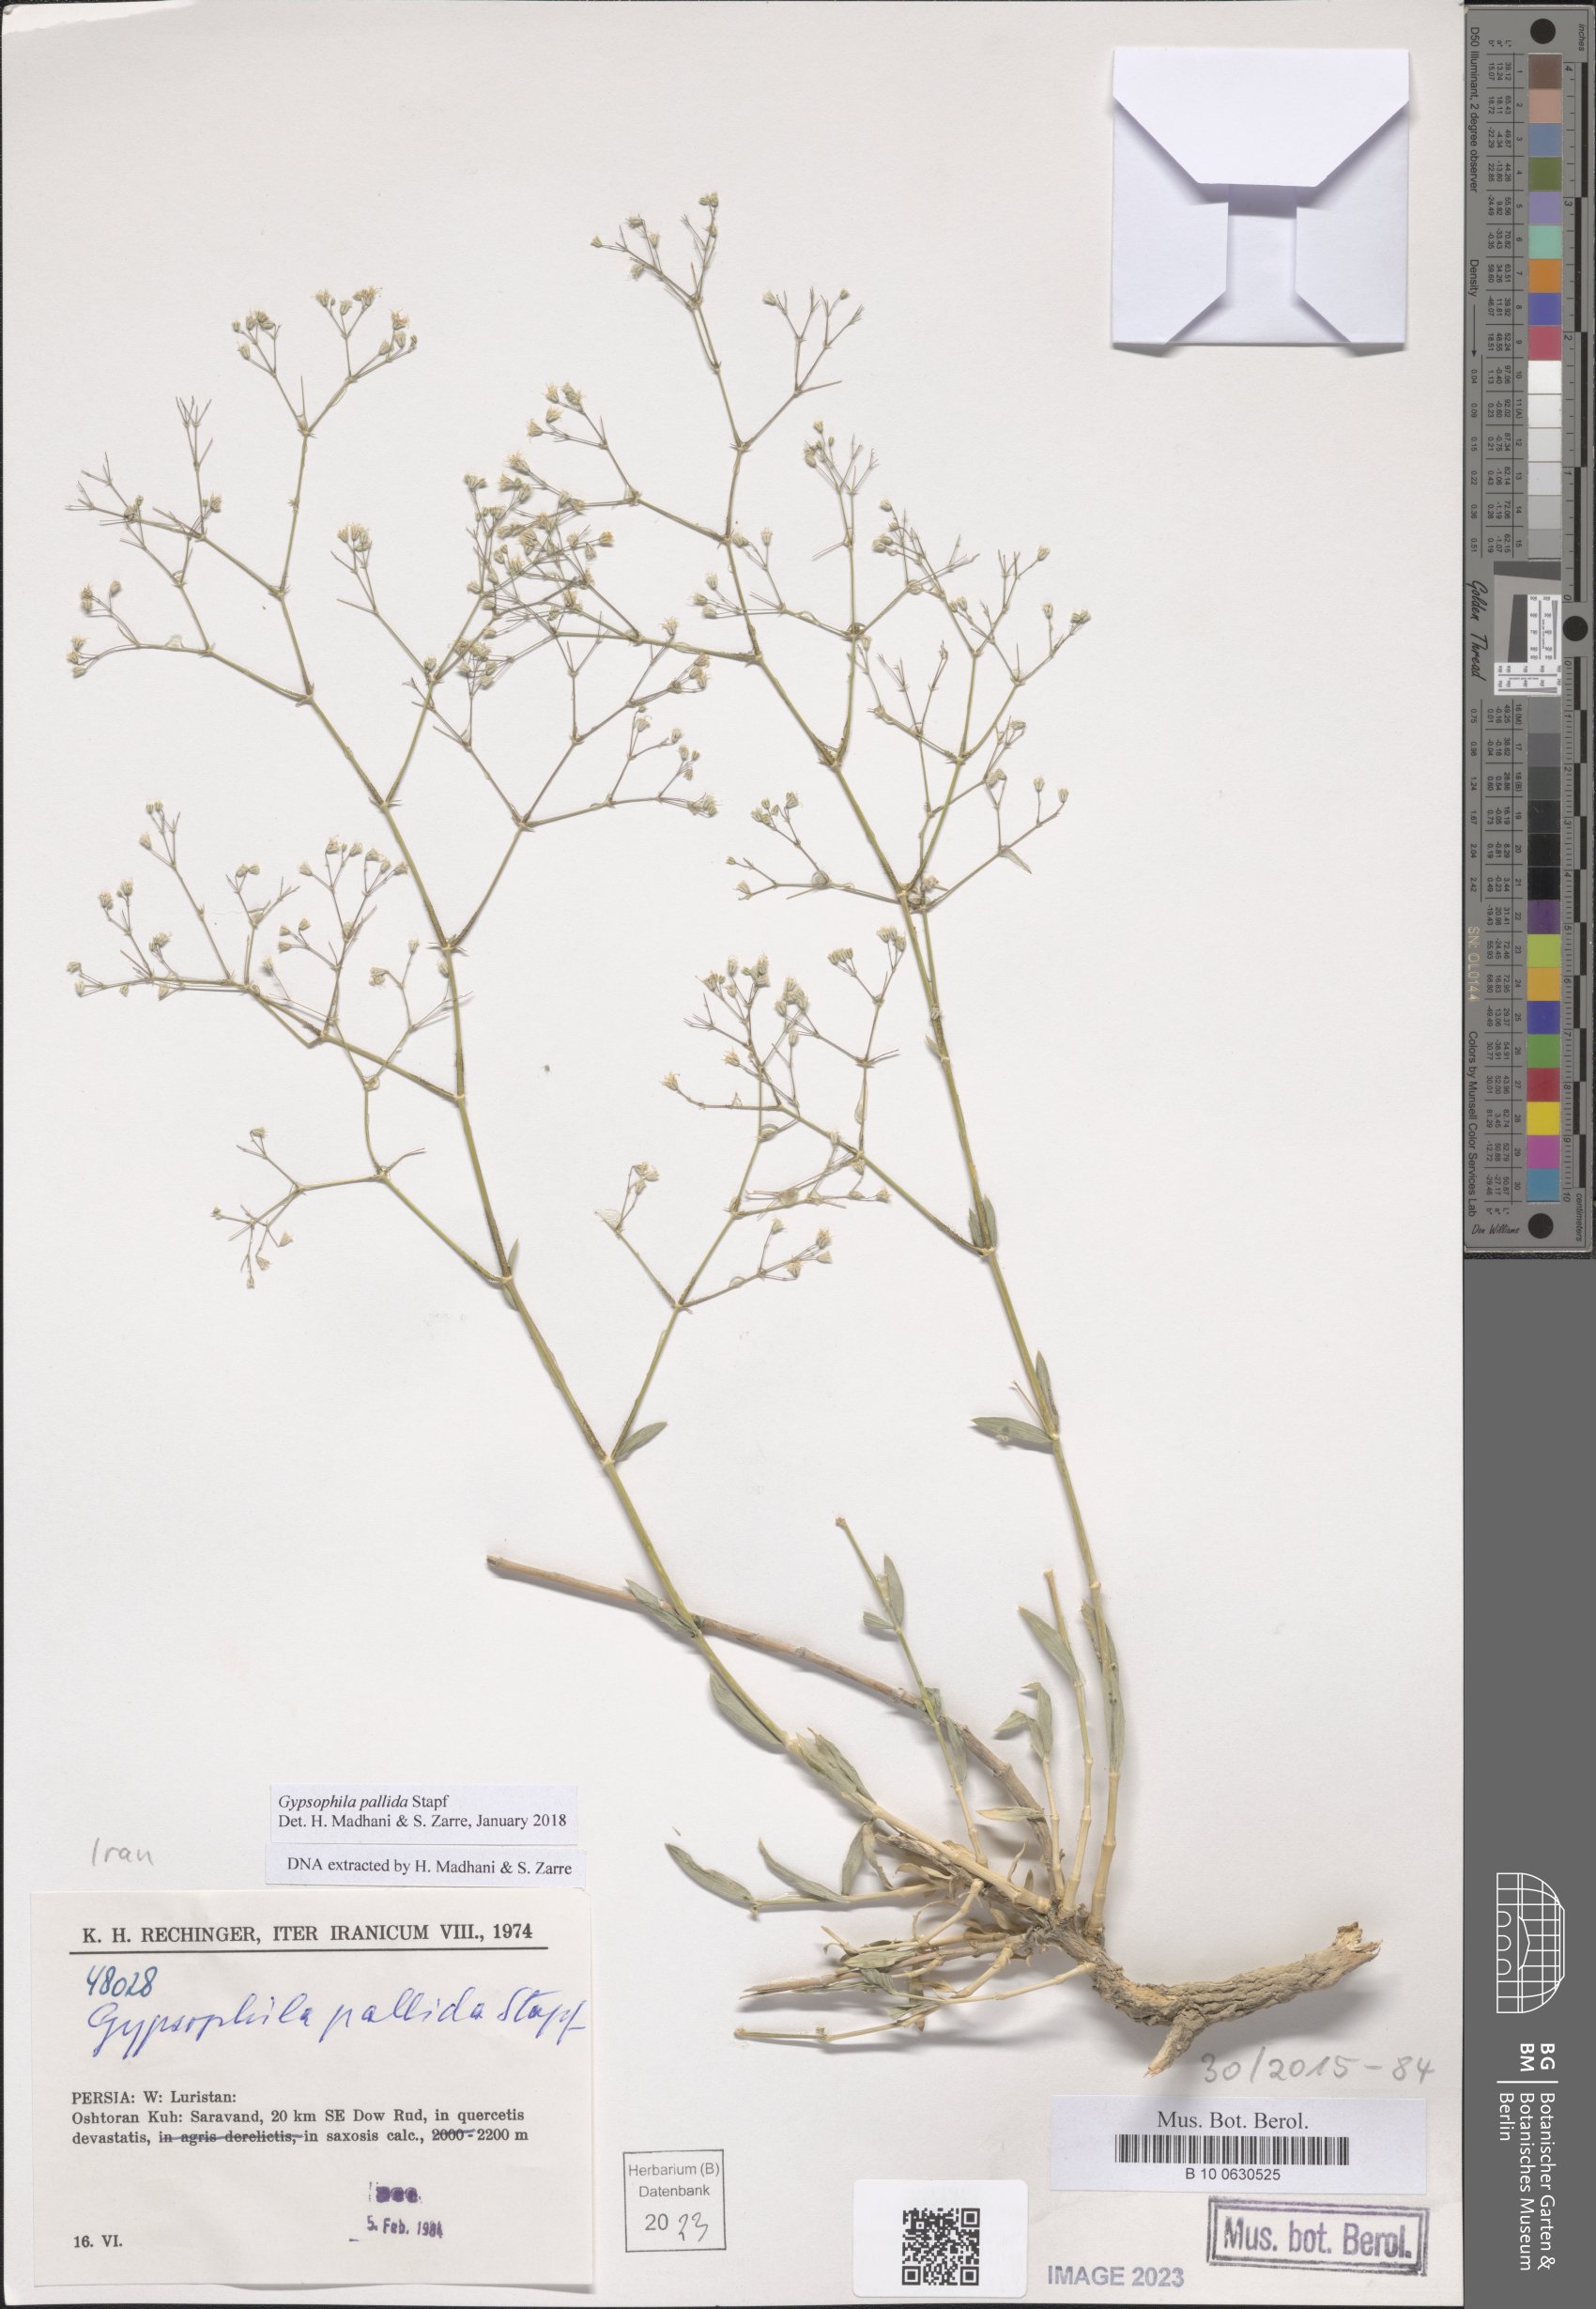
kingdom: Plantae
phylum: Tracheophyta
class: Magnoliopsida
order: Caryophyllales
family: Caryophyllaceae
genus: Gypsophila
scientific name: Gypsophila pallida
